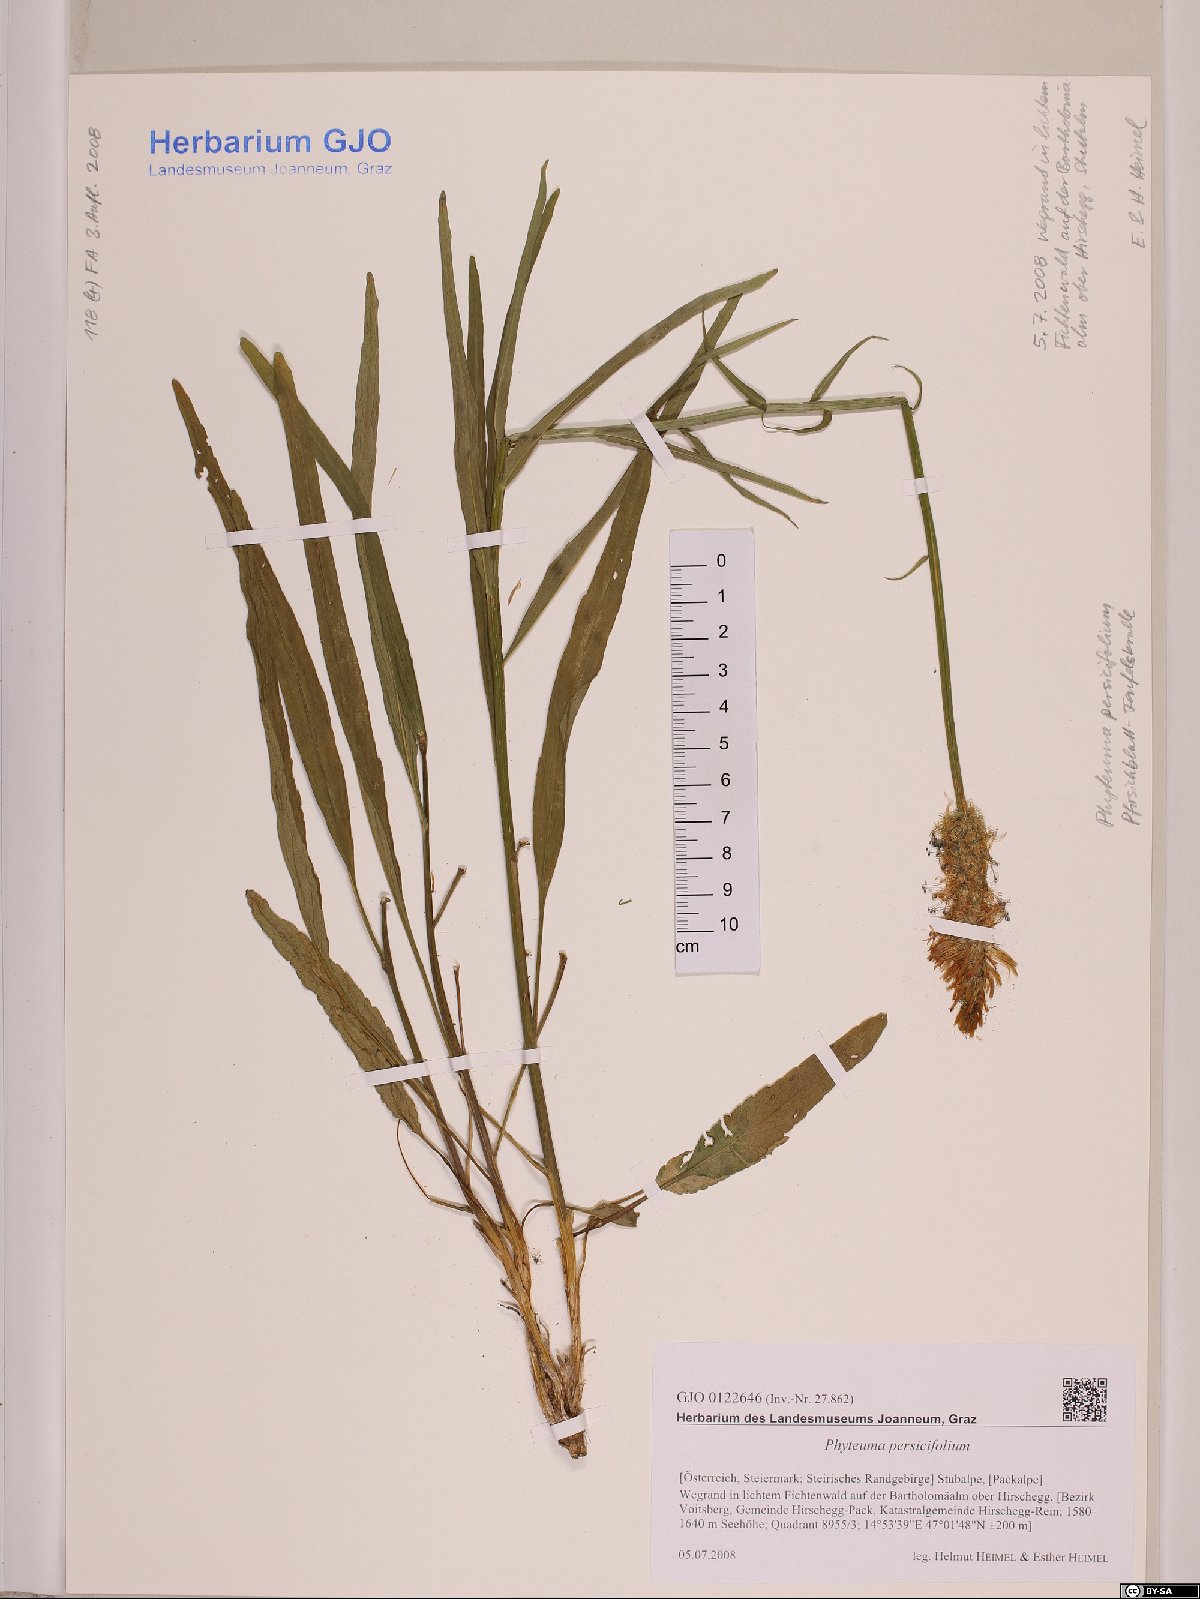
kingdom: Plantae
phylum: Tracheophyta
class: Magnoliopsida
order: Asterales
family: Campanulaceae
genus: Phyteuma
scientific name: Phyteuma persicifolium
